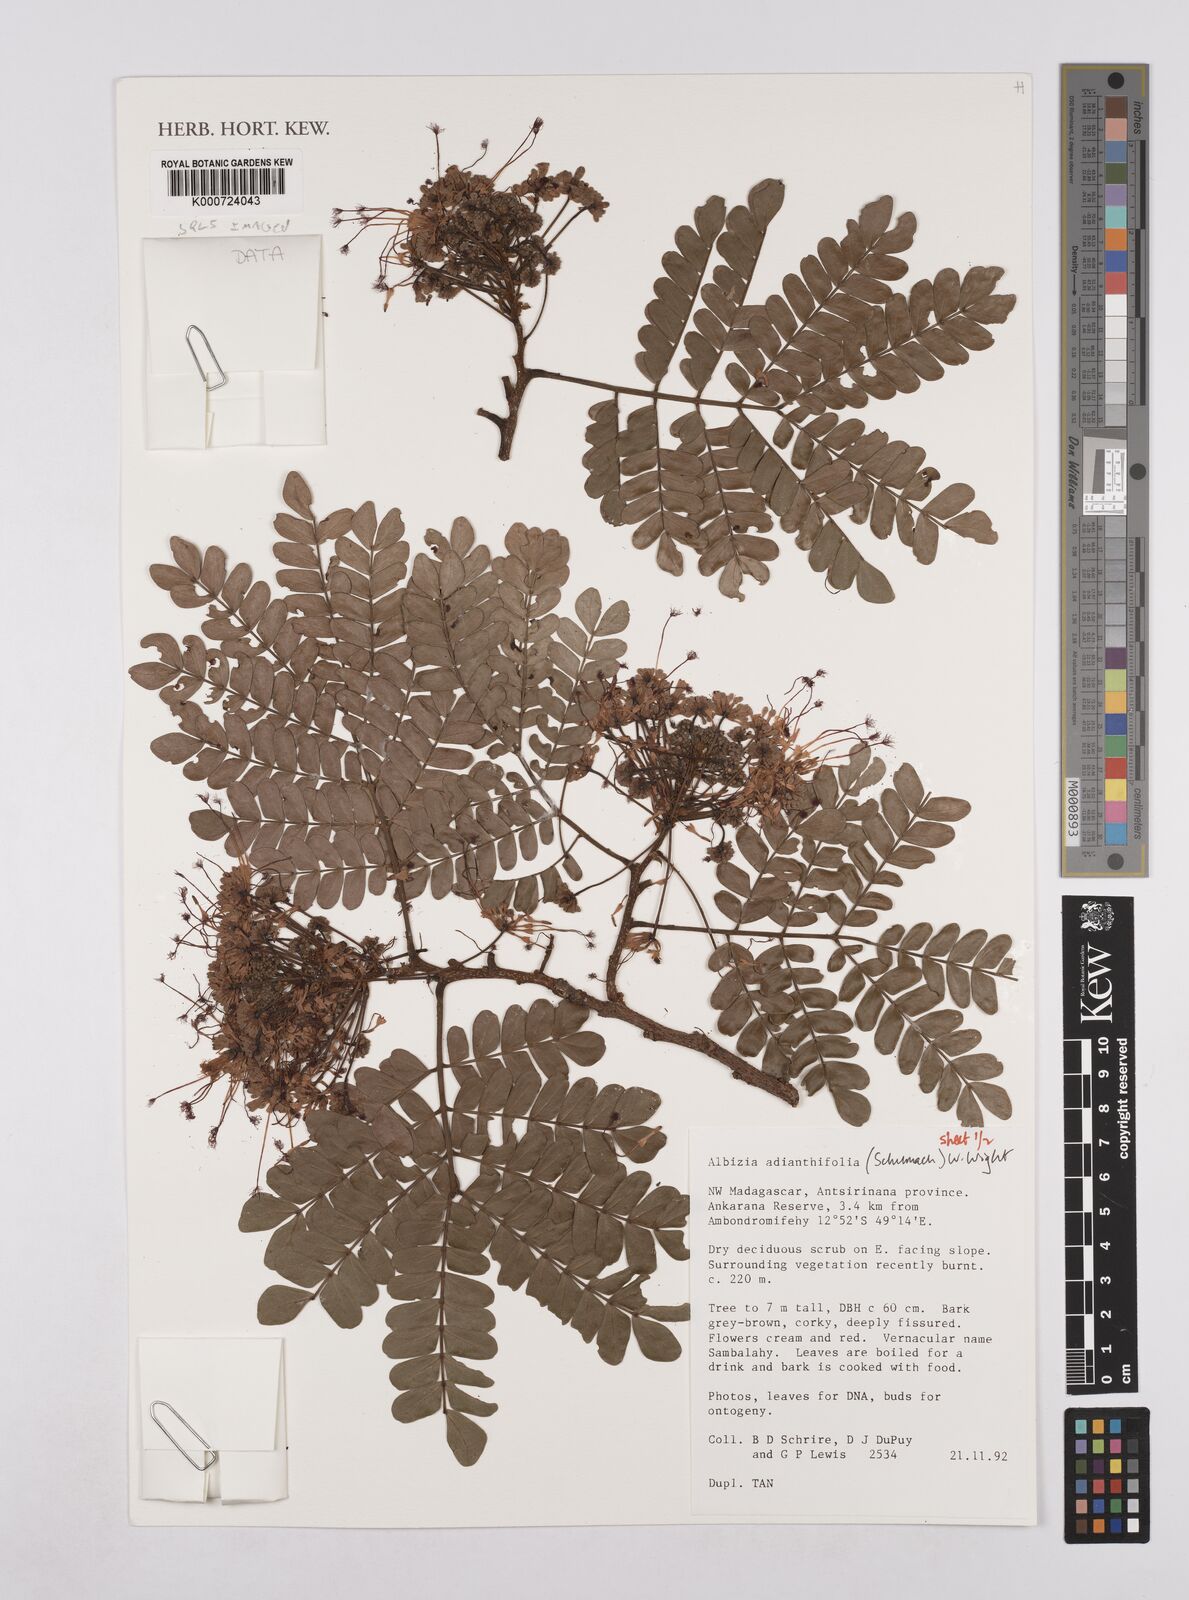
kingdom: Plantae
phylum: Tracheophyta
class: Magnoliopsida
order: Fabales
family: Fabaceae
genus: Albizia
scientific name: Albizia adianthifolia
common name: West african albizia
